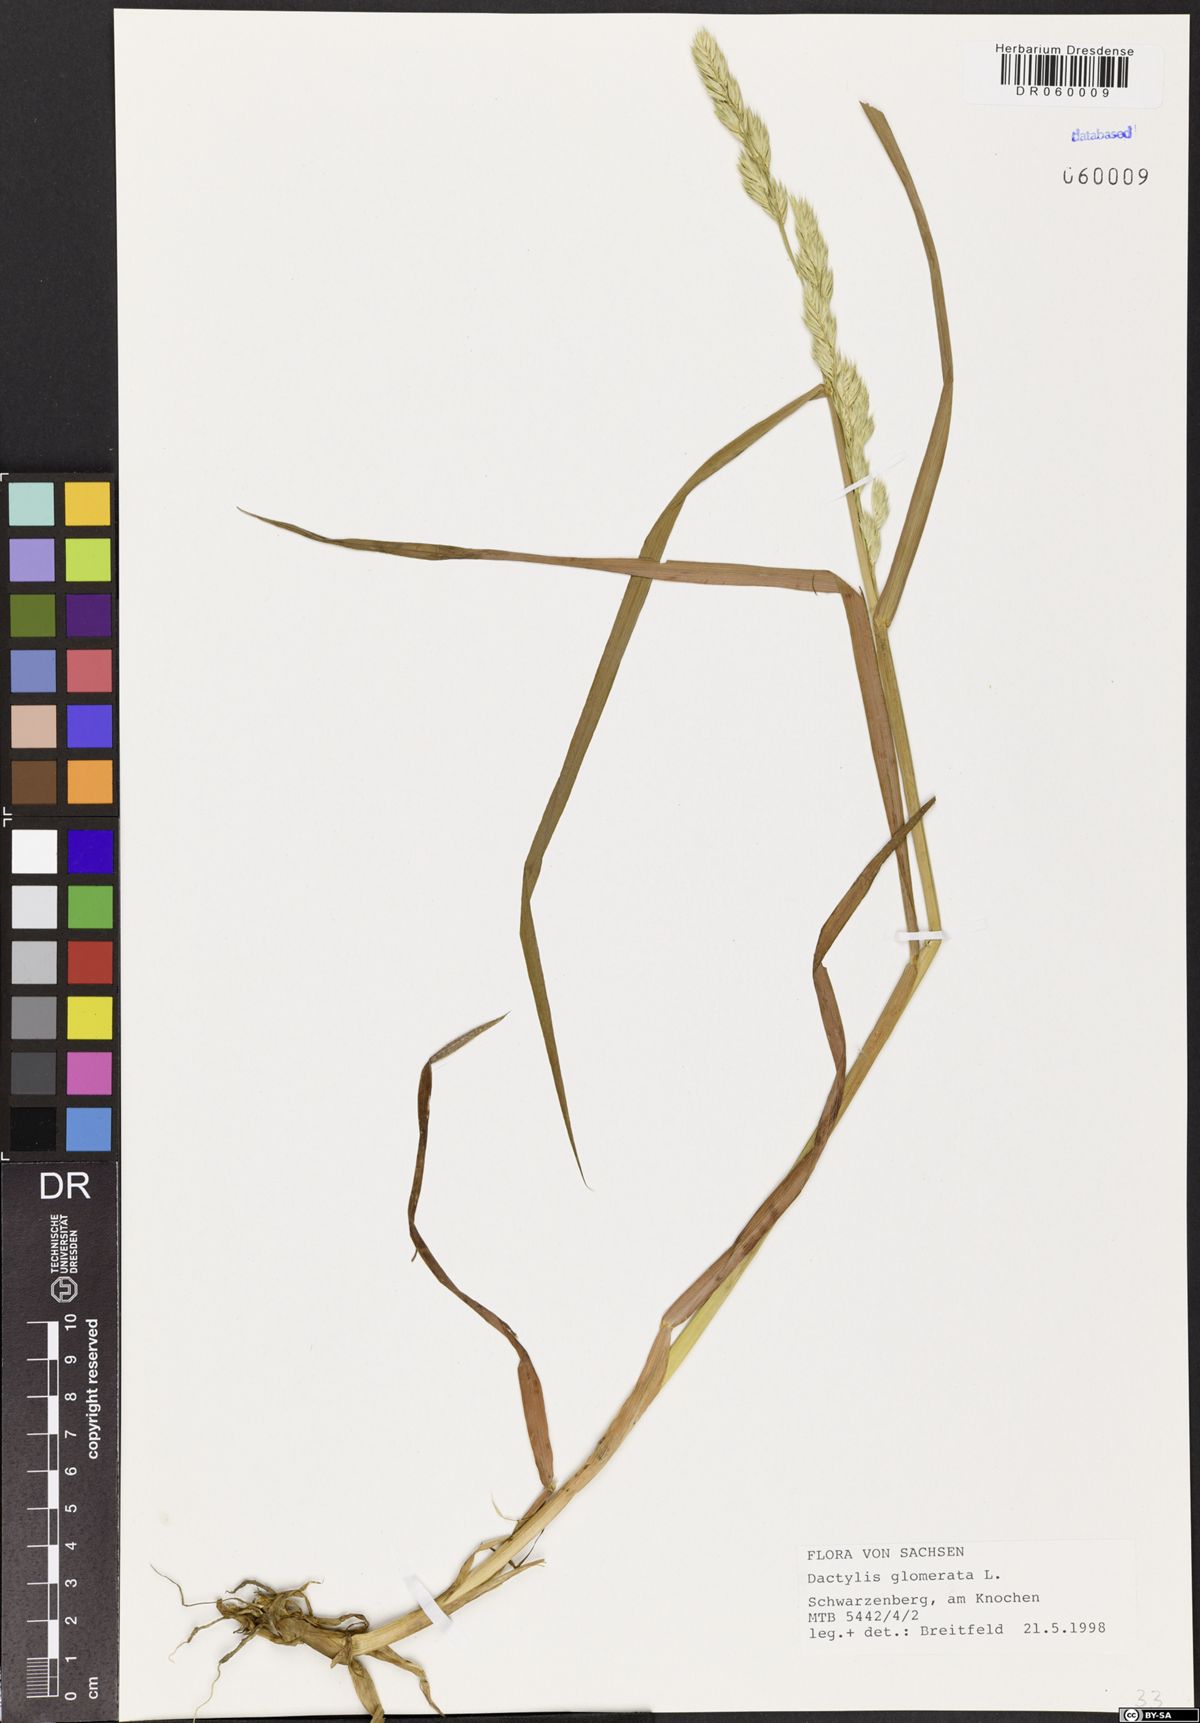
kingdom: Plantae
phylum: Tracheophyta
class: Liliopsida
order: Poales
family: Poaceae
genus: Dactylis
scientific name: Dactylis glomerata
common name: Orchardgrass
